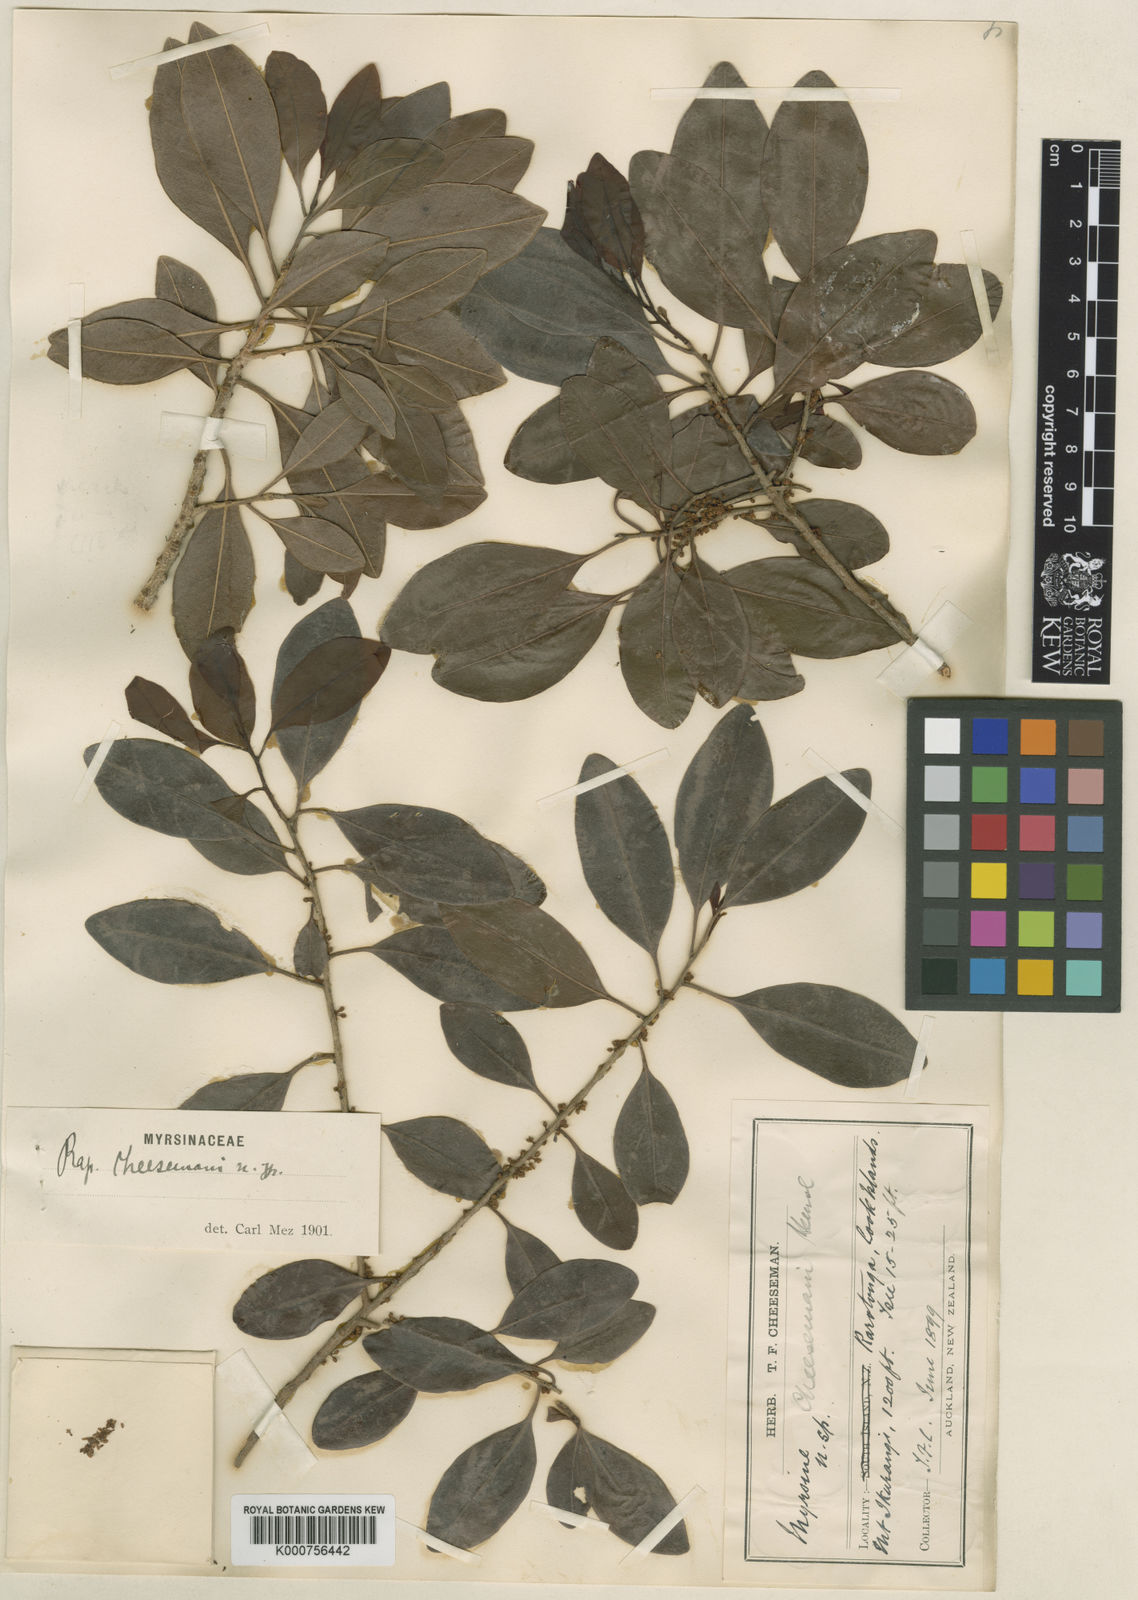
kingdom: Plantae
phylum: Tracheophyta
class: Magnoliopsida
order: Ericales
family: Primulaceae
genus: Myrsine
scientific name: Myrsine
